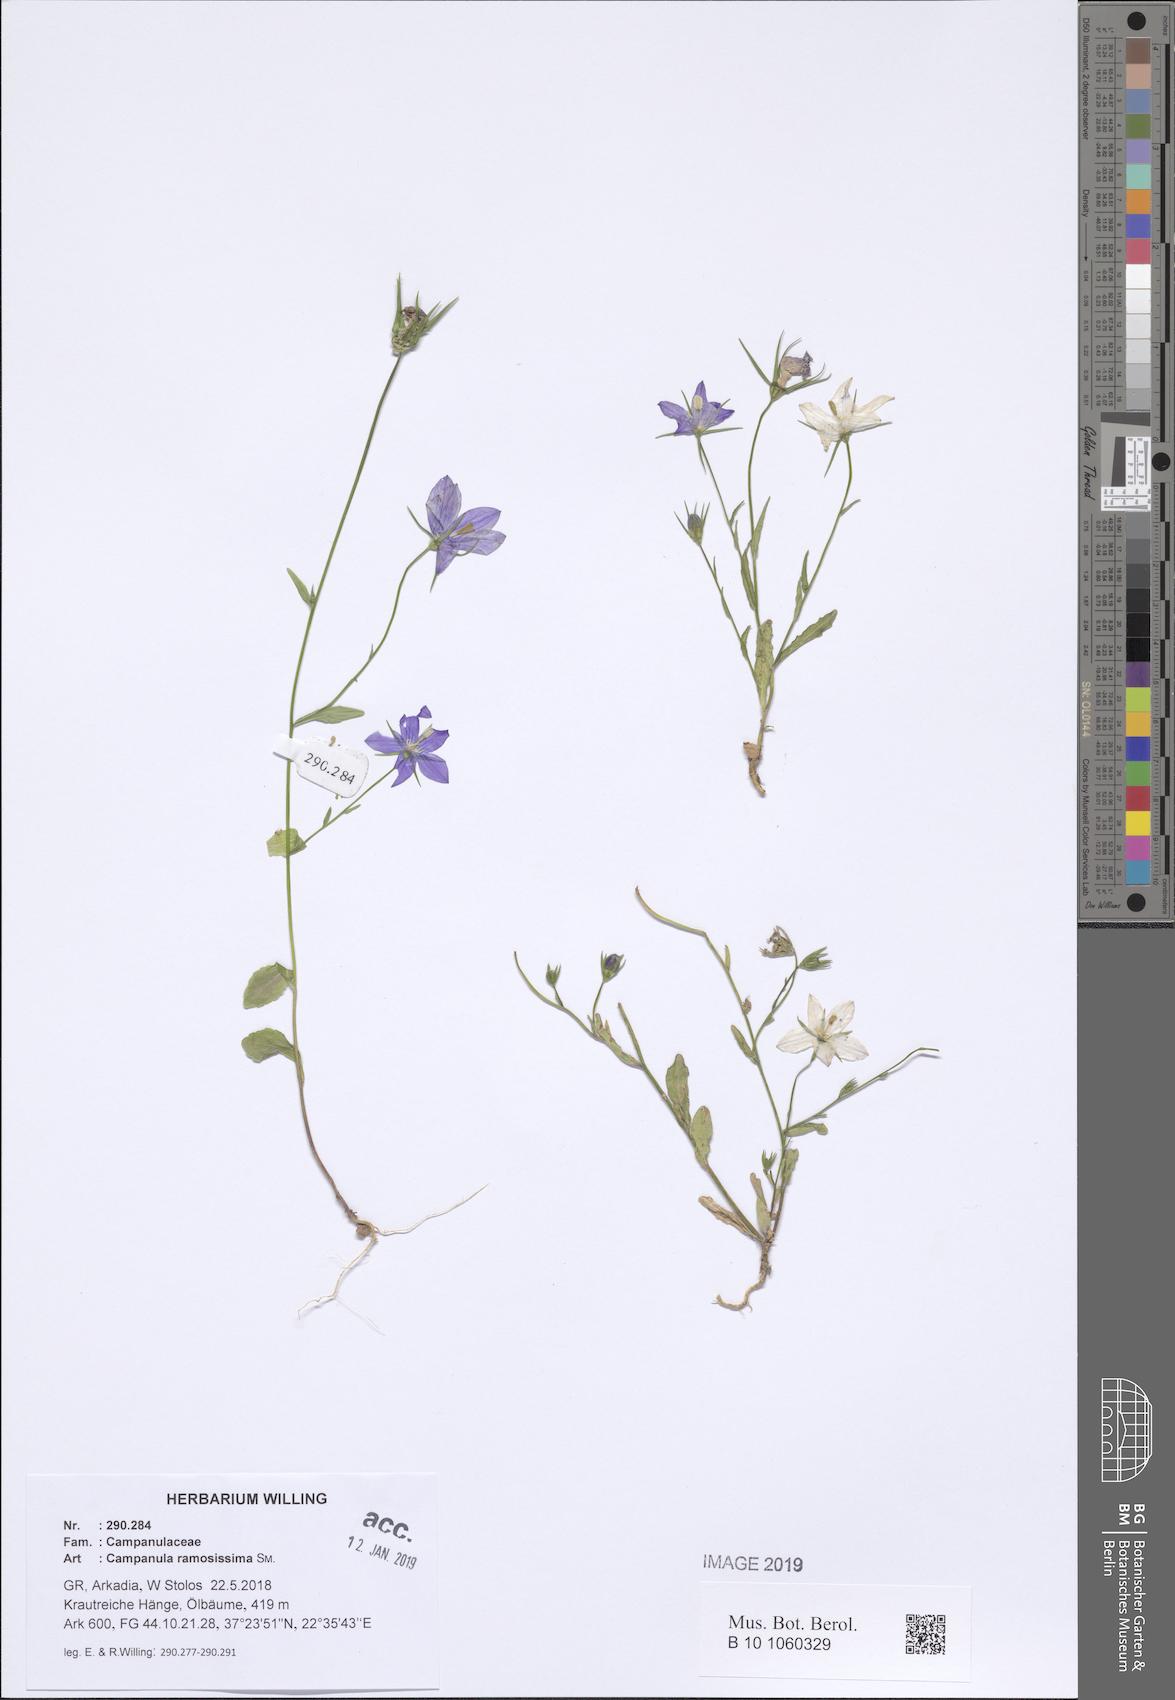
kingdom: Plantae
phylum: Tracheophyta
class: Magnoliopsida
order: Asterales
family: Campanulaceae
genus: Campanula
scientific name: Campanula ramosissima
